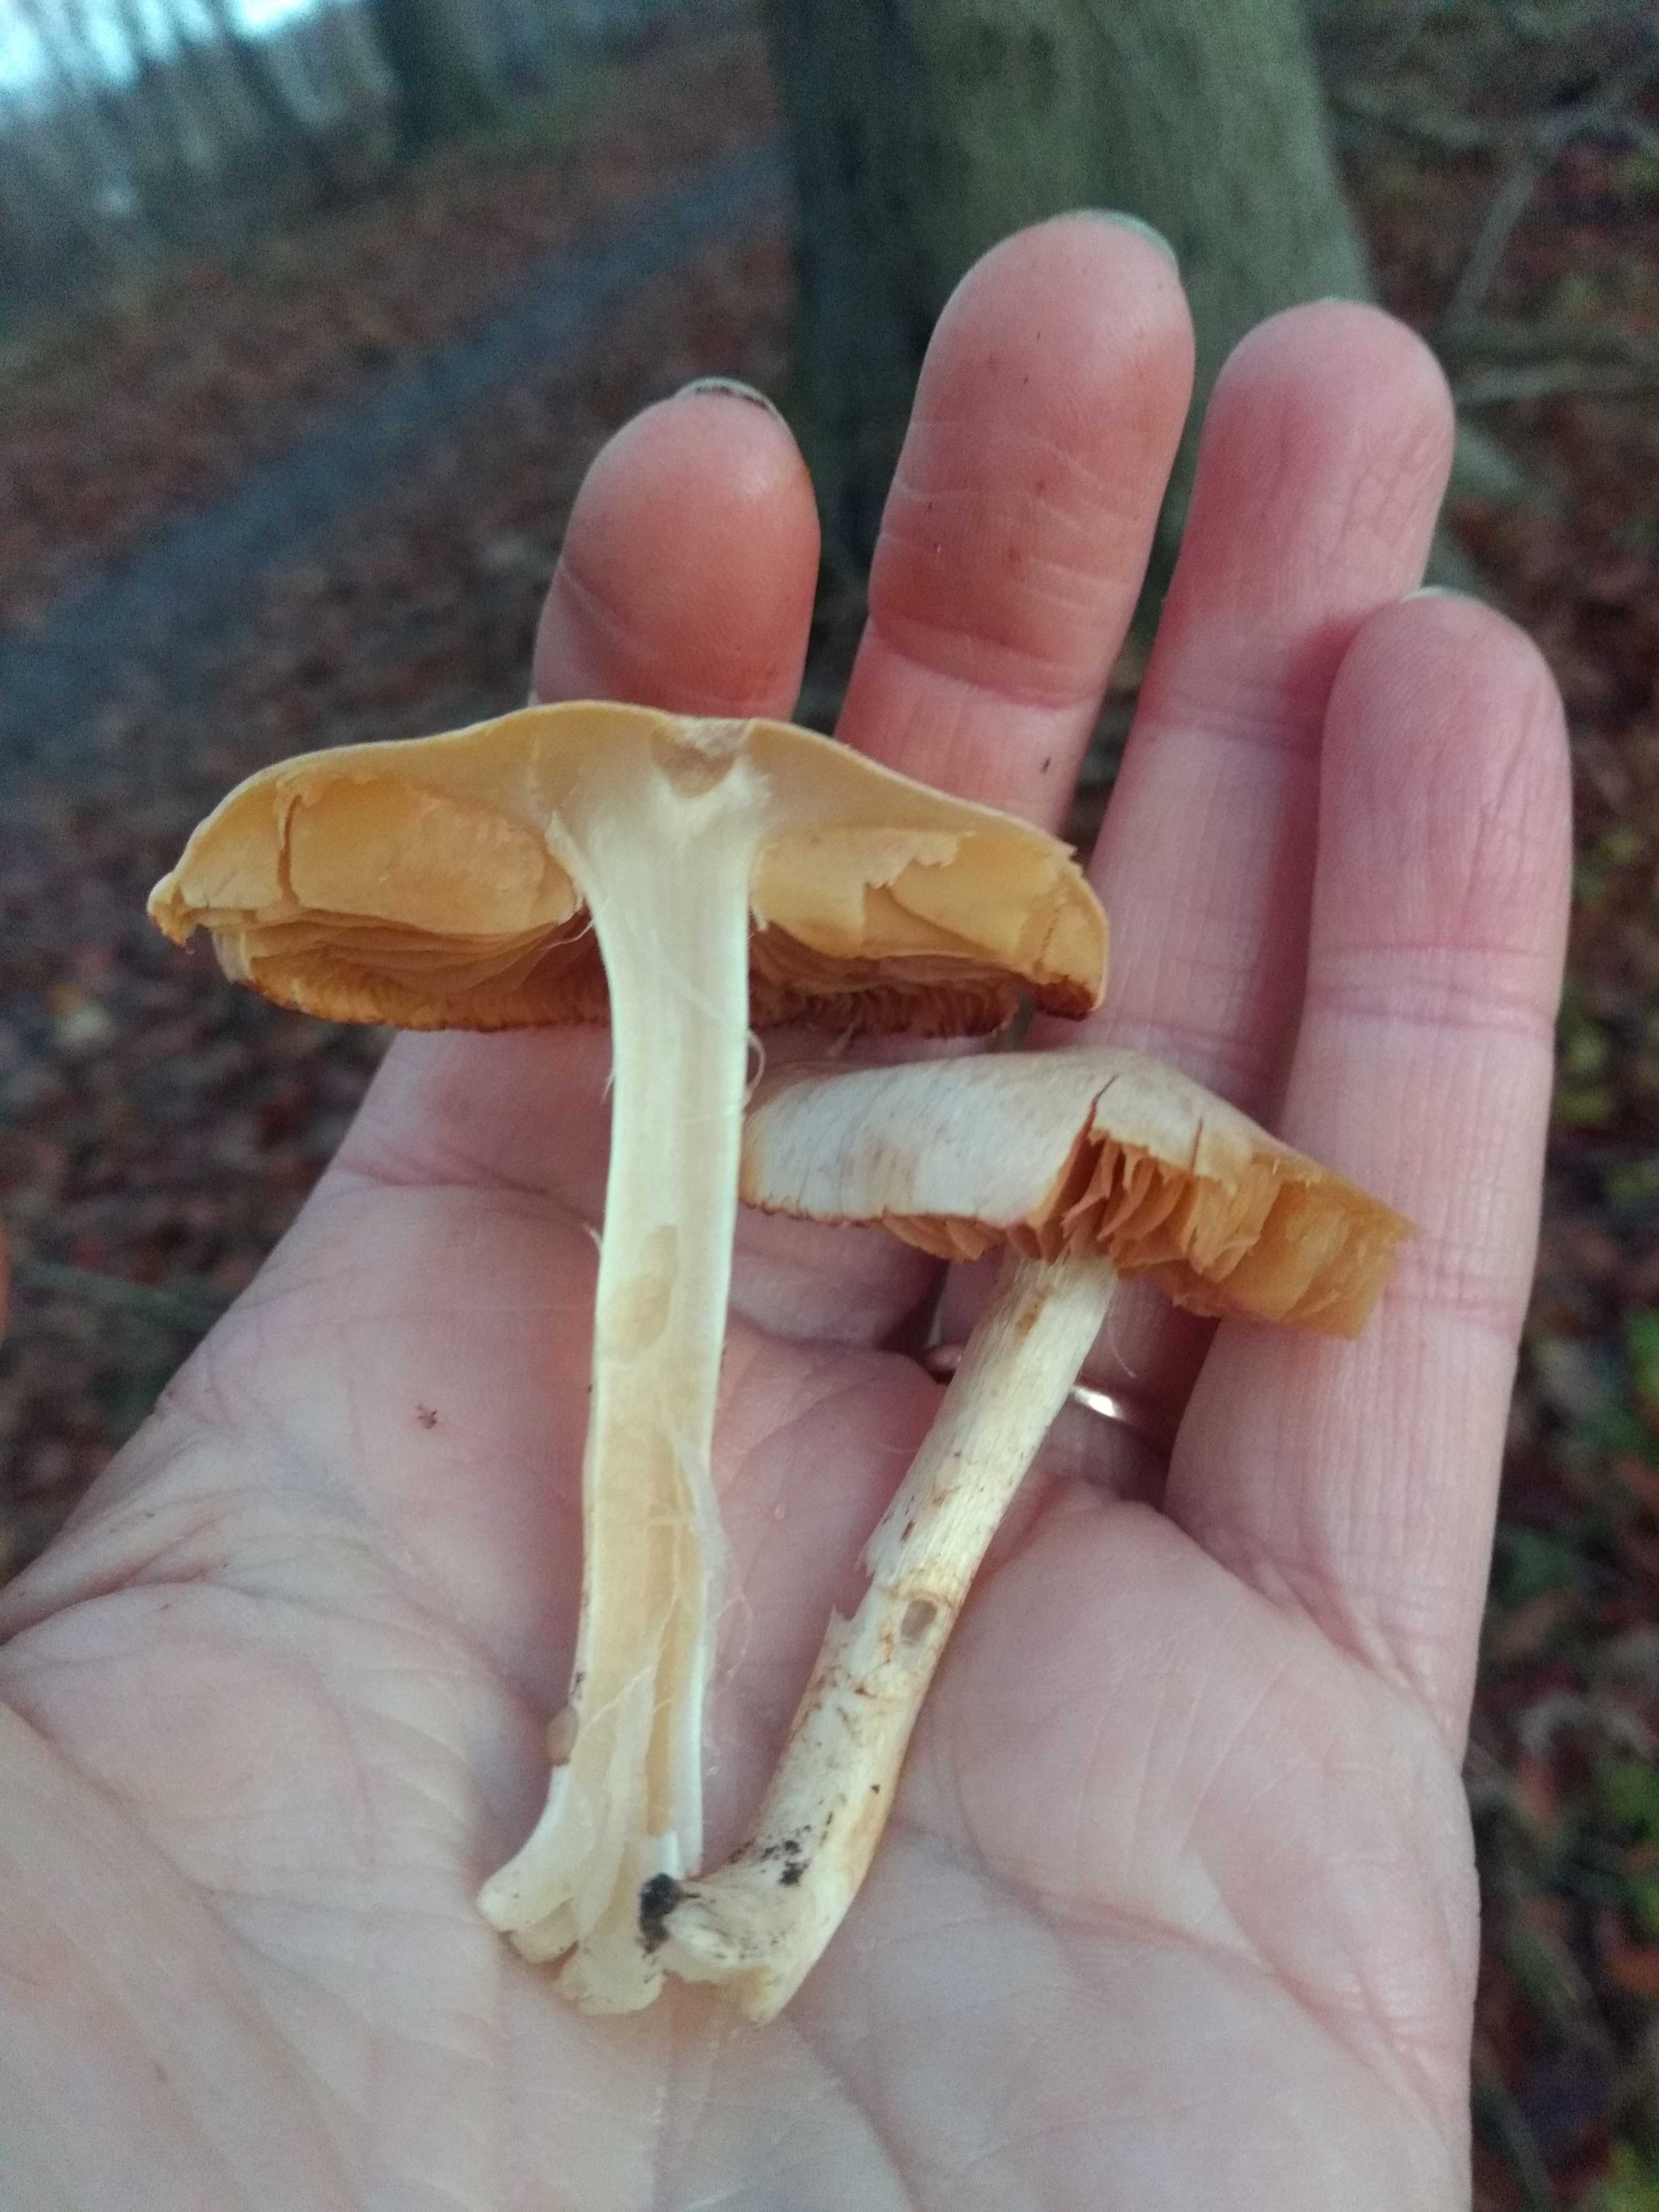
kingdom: Fungi
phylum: Basidiomycota
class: Agaricomycetes
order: Agaricales
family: Cortinariaceae
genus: Cortinarius
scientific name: Cortinarius
